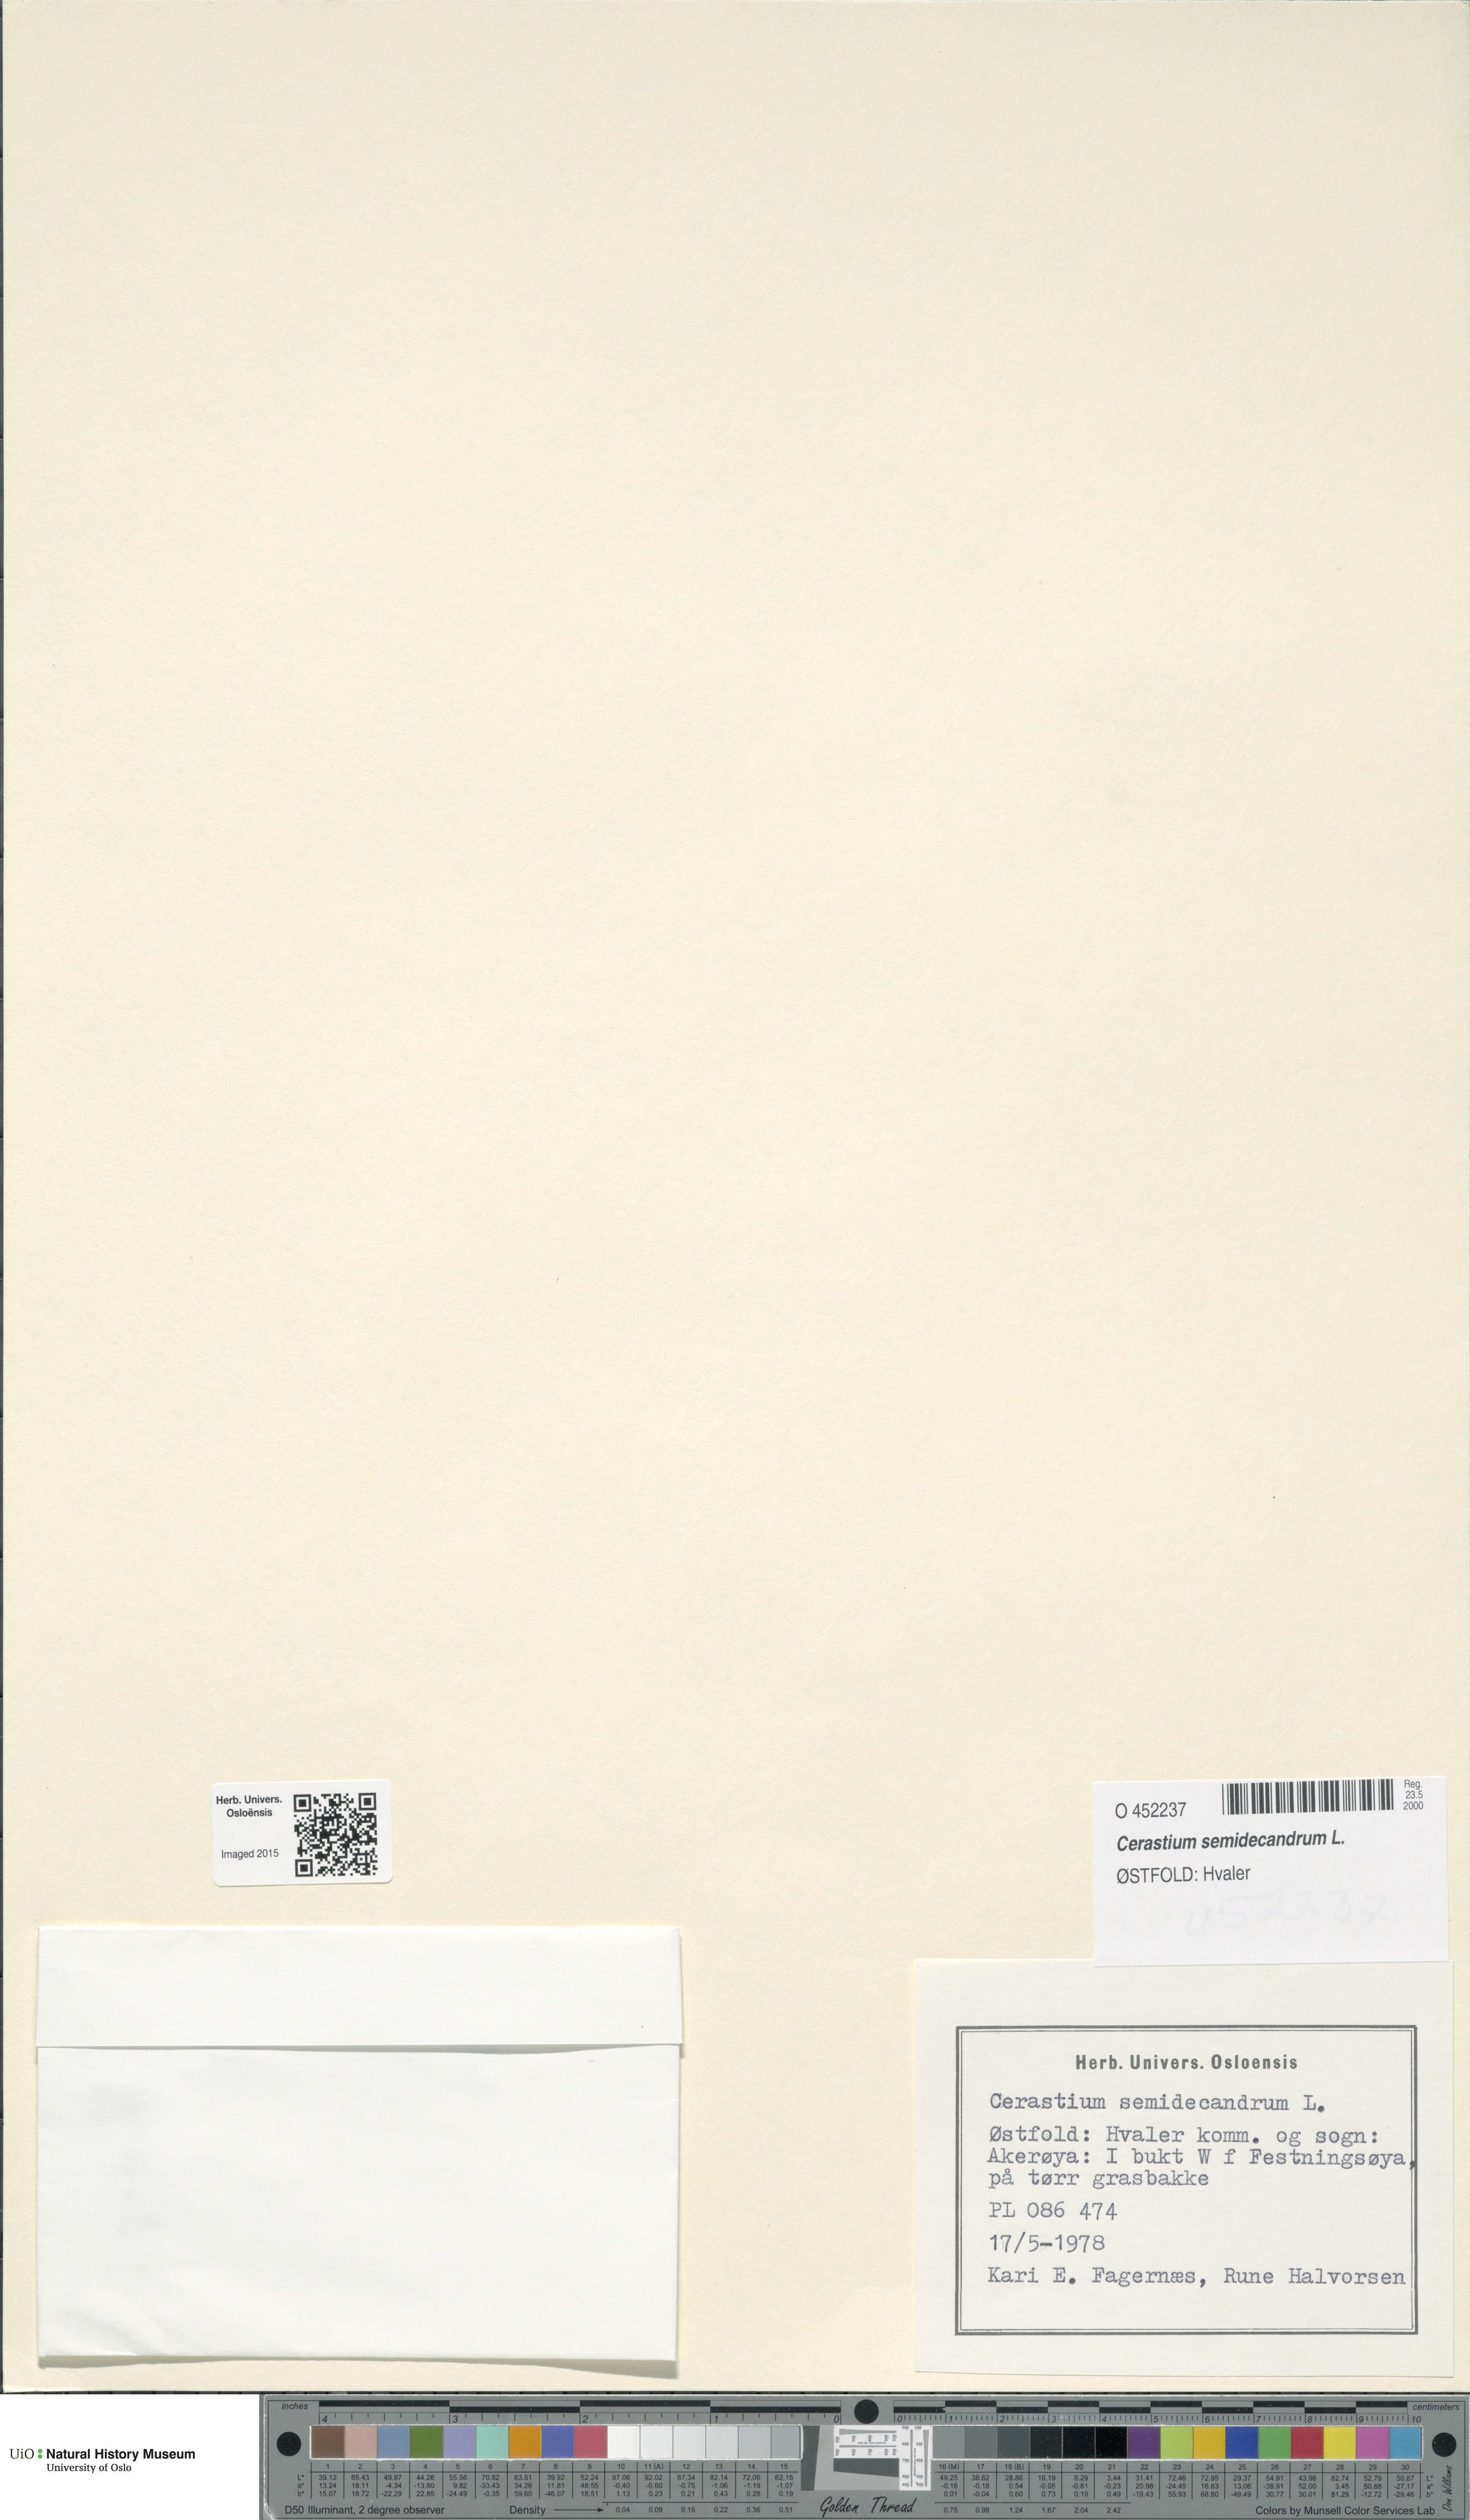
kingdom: Plantae
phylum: Tracheophyta
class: Magnoliopsida
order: Caryophyllales
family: Caryophyllaceae
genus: Cerastium
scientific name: Cerastium semidecandrum
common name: Little mouse-ear
